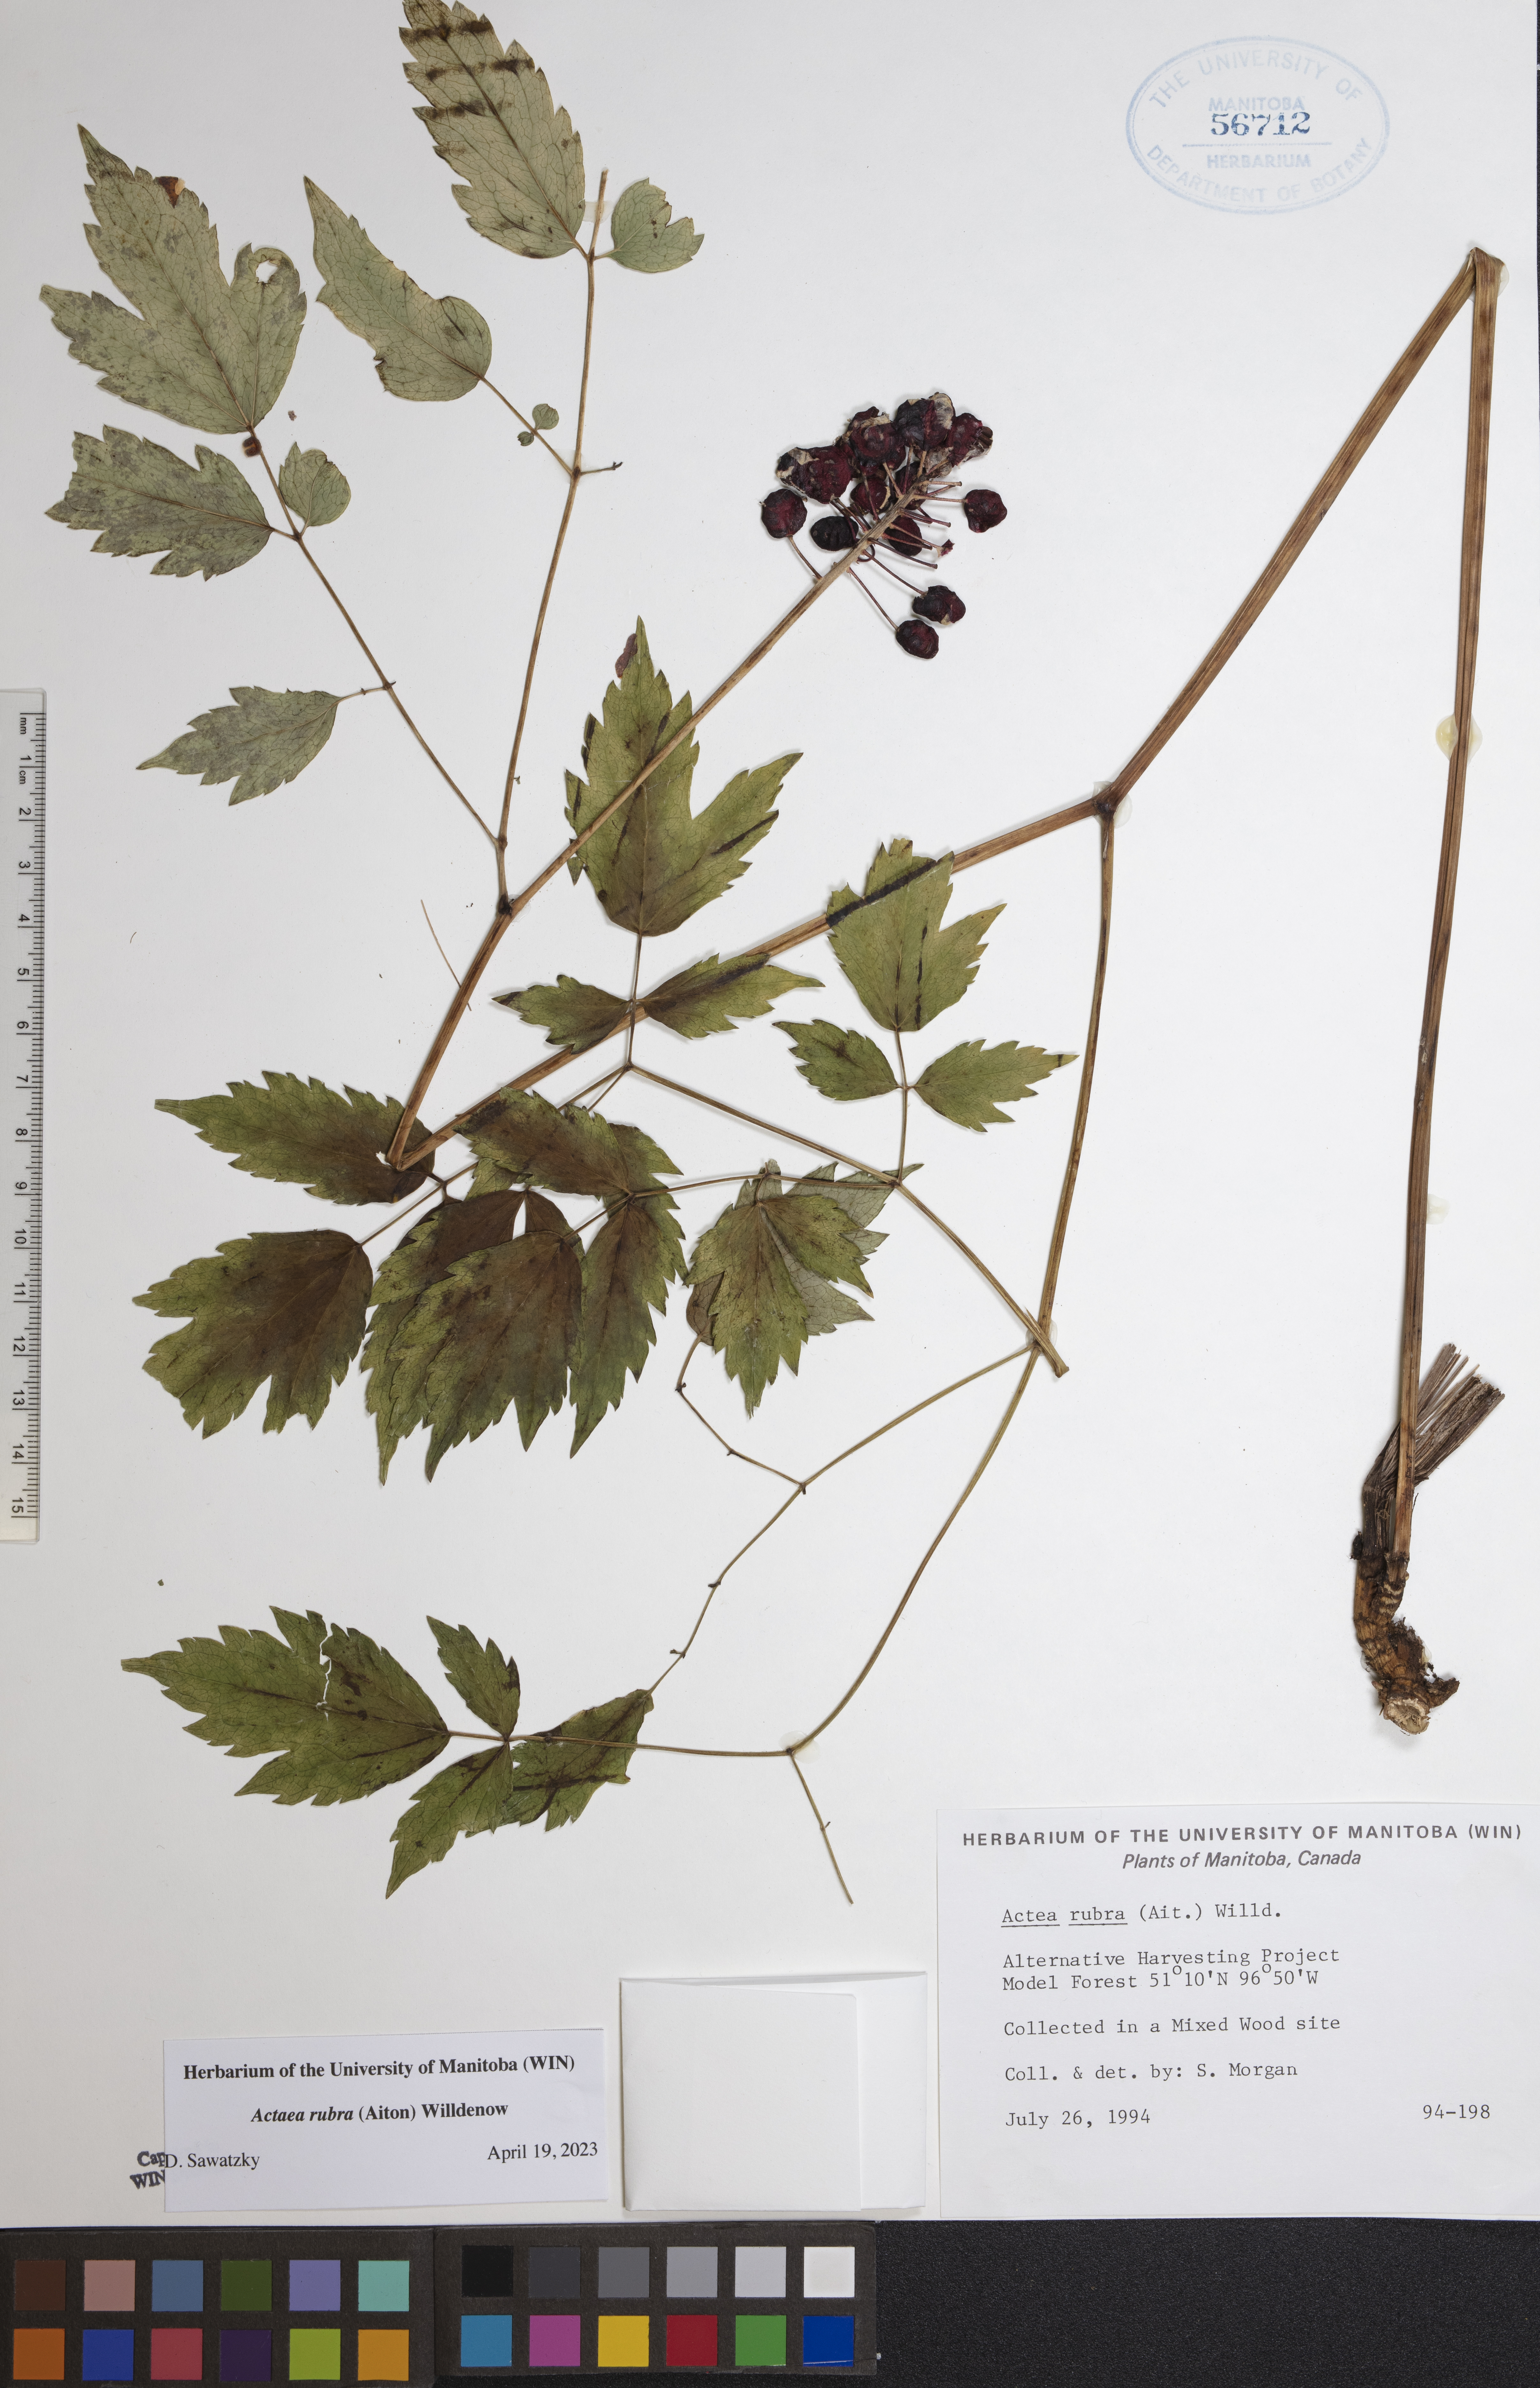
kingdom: Plantae
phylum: Tracheophyta
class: Magnoliopsida
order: Ranunculales
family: Ranunculaceae
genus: Actaea
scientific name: Actaea rubra
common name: Red baneberry
